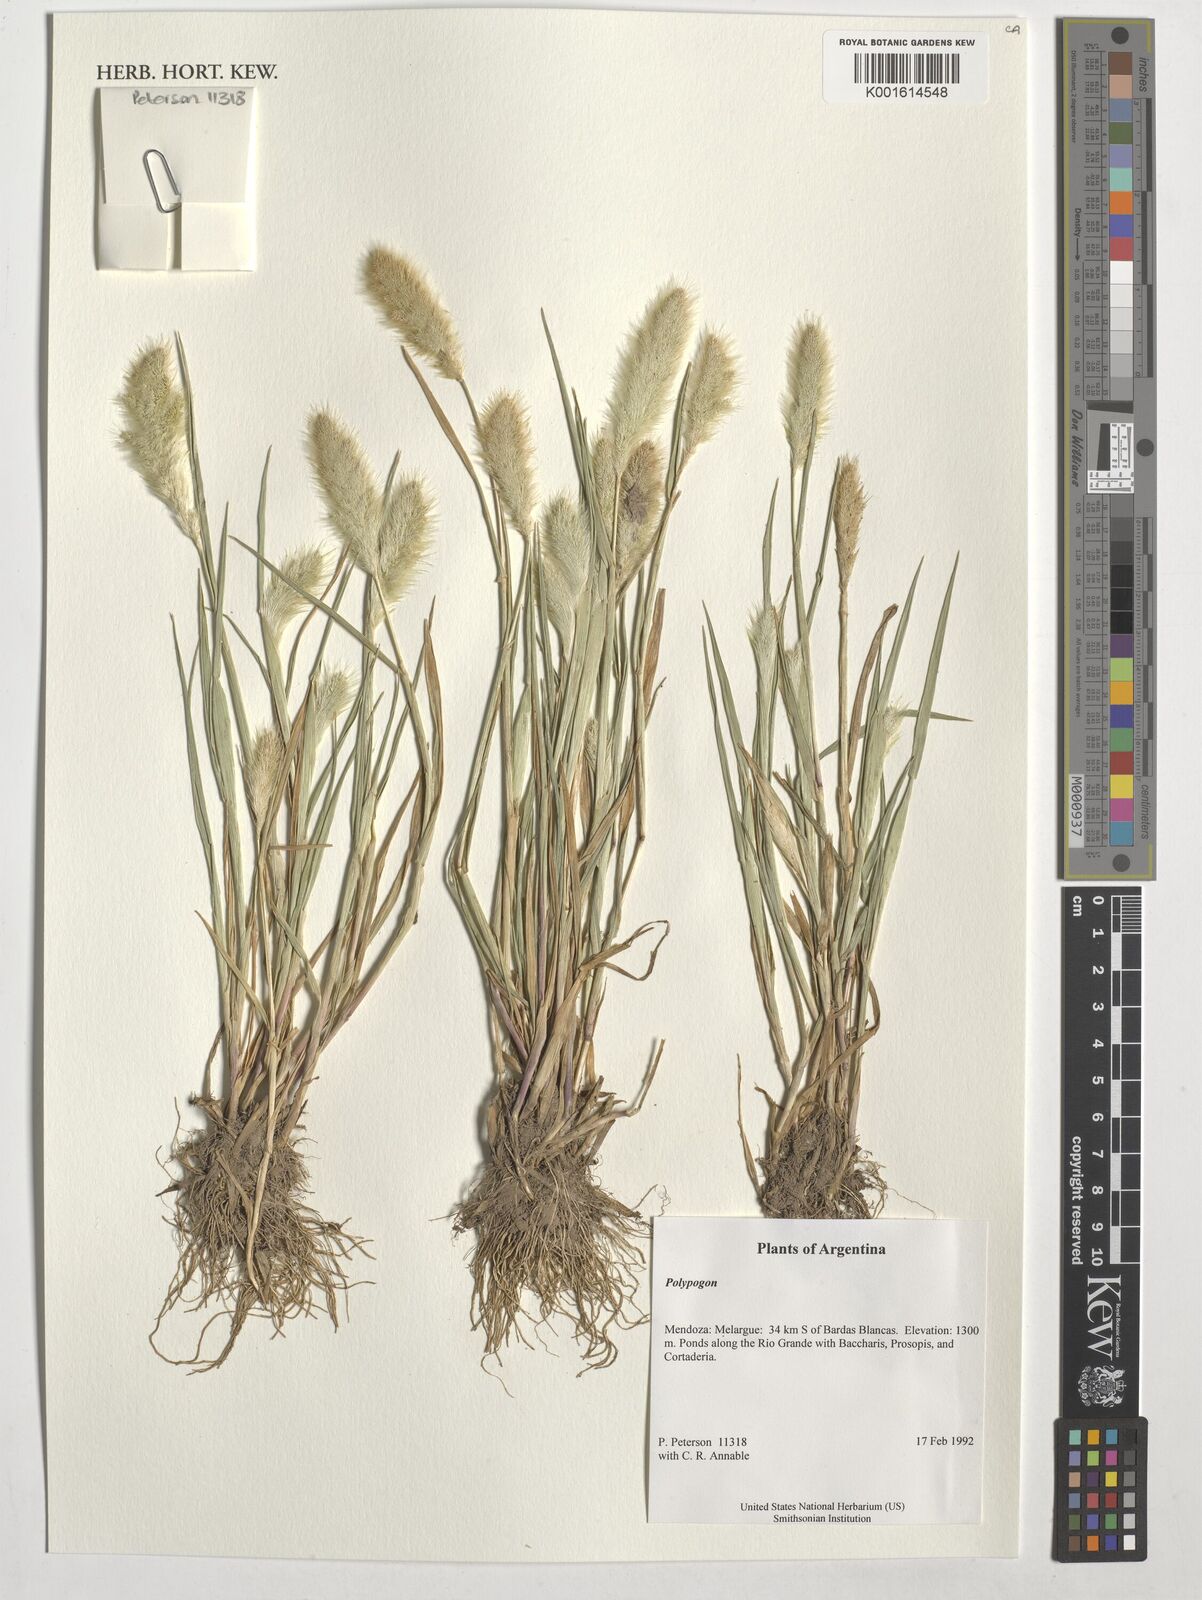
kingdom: Plantae
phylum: Tracheophyta
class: Liliopsida
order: Poales
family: Poaceae
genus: Polypogon
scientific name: Polypogon
